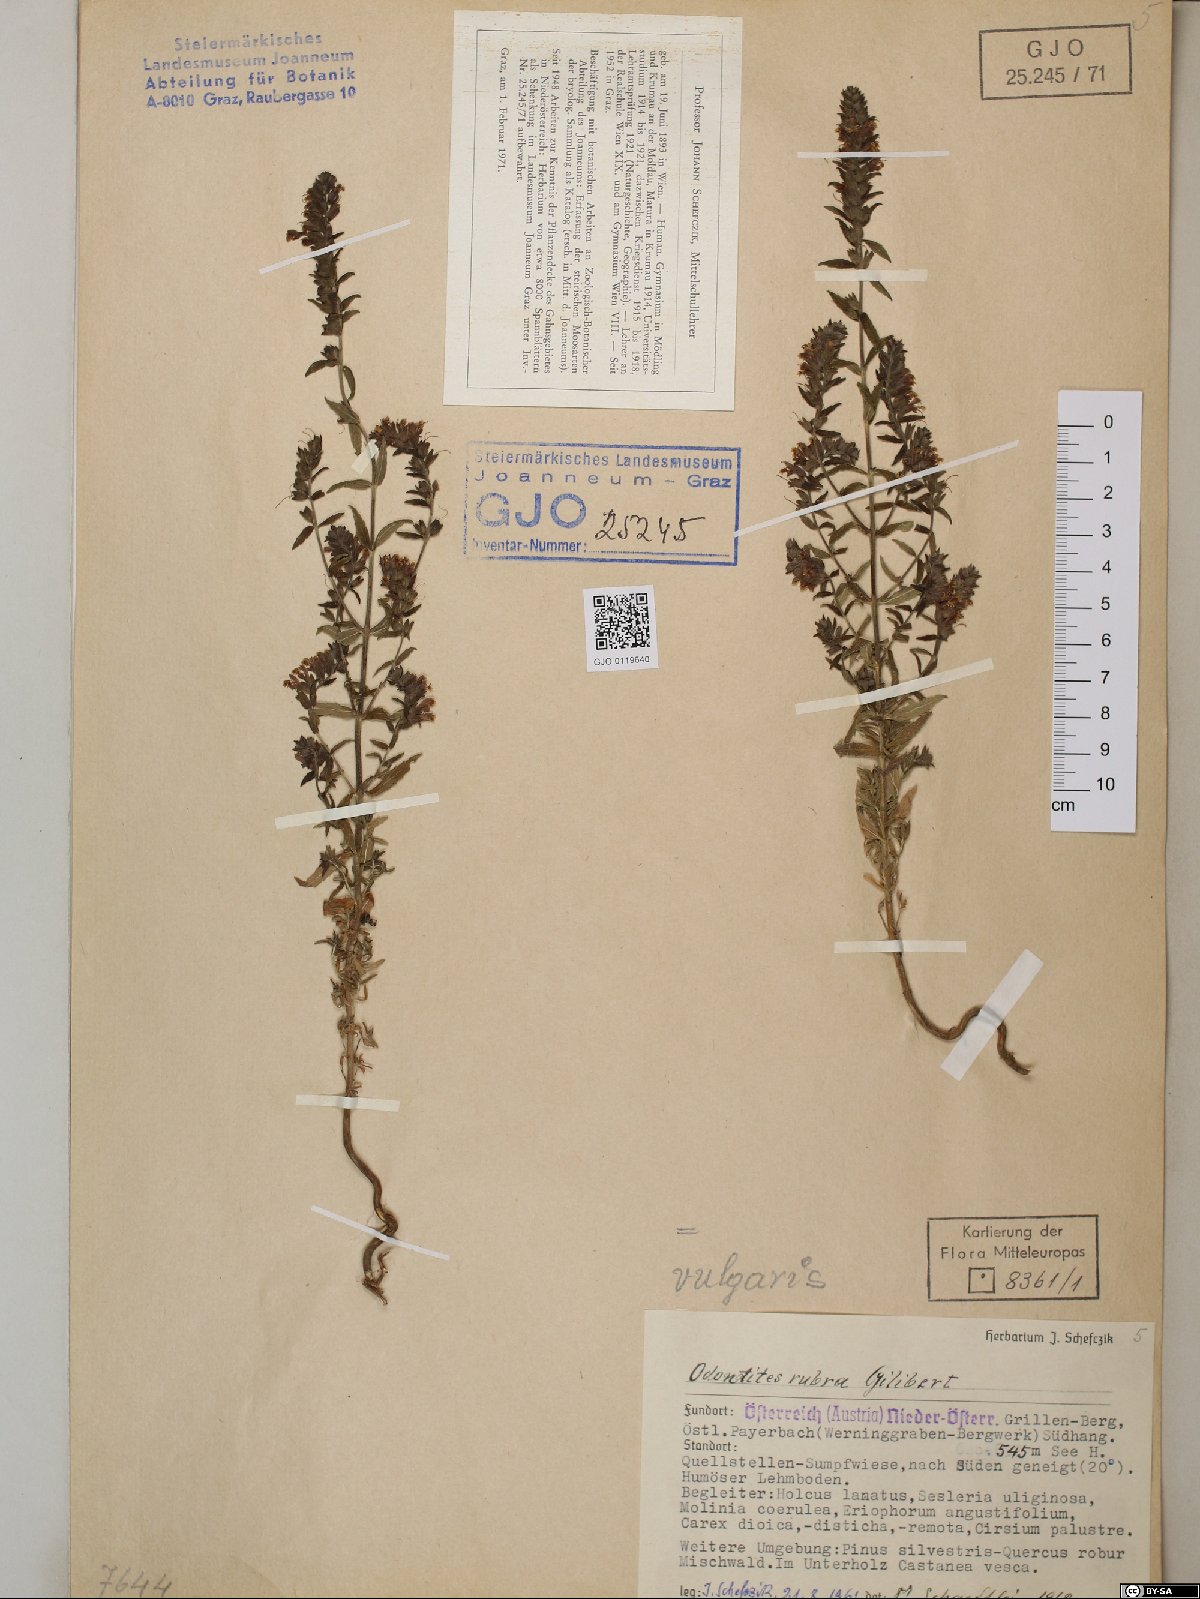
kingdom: Plantae
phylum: Tracheophyta
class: Magnoliopsida
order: Lamiales
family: Orobanchaceae
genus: Odontites
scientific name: Odontites vulgaris
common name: Broomrape
